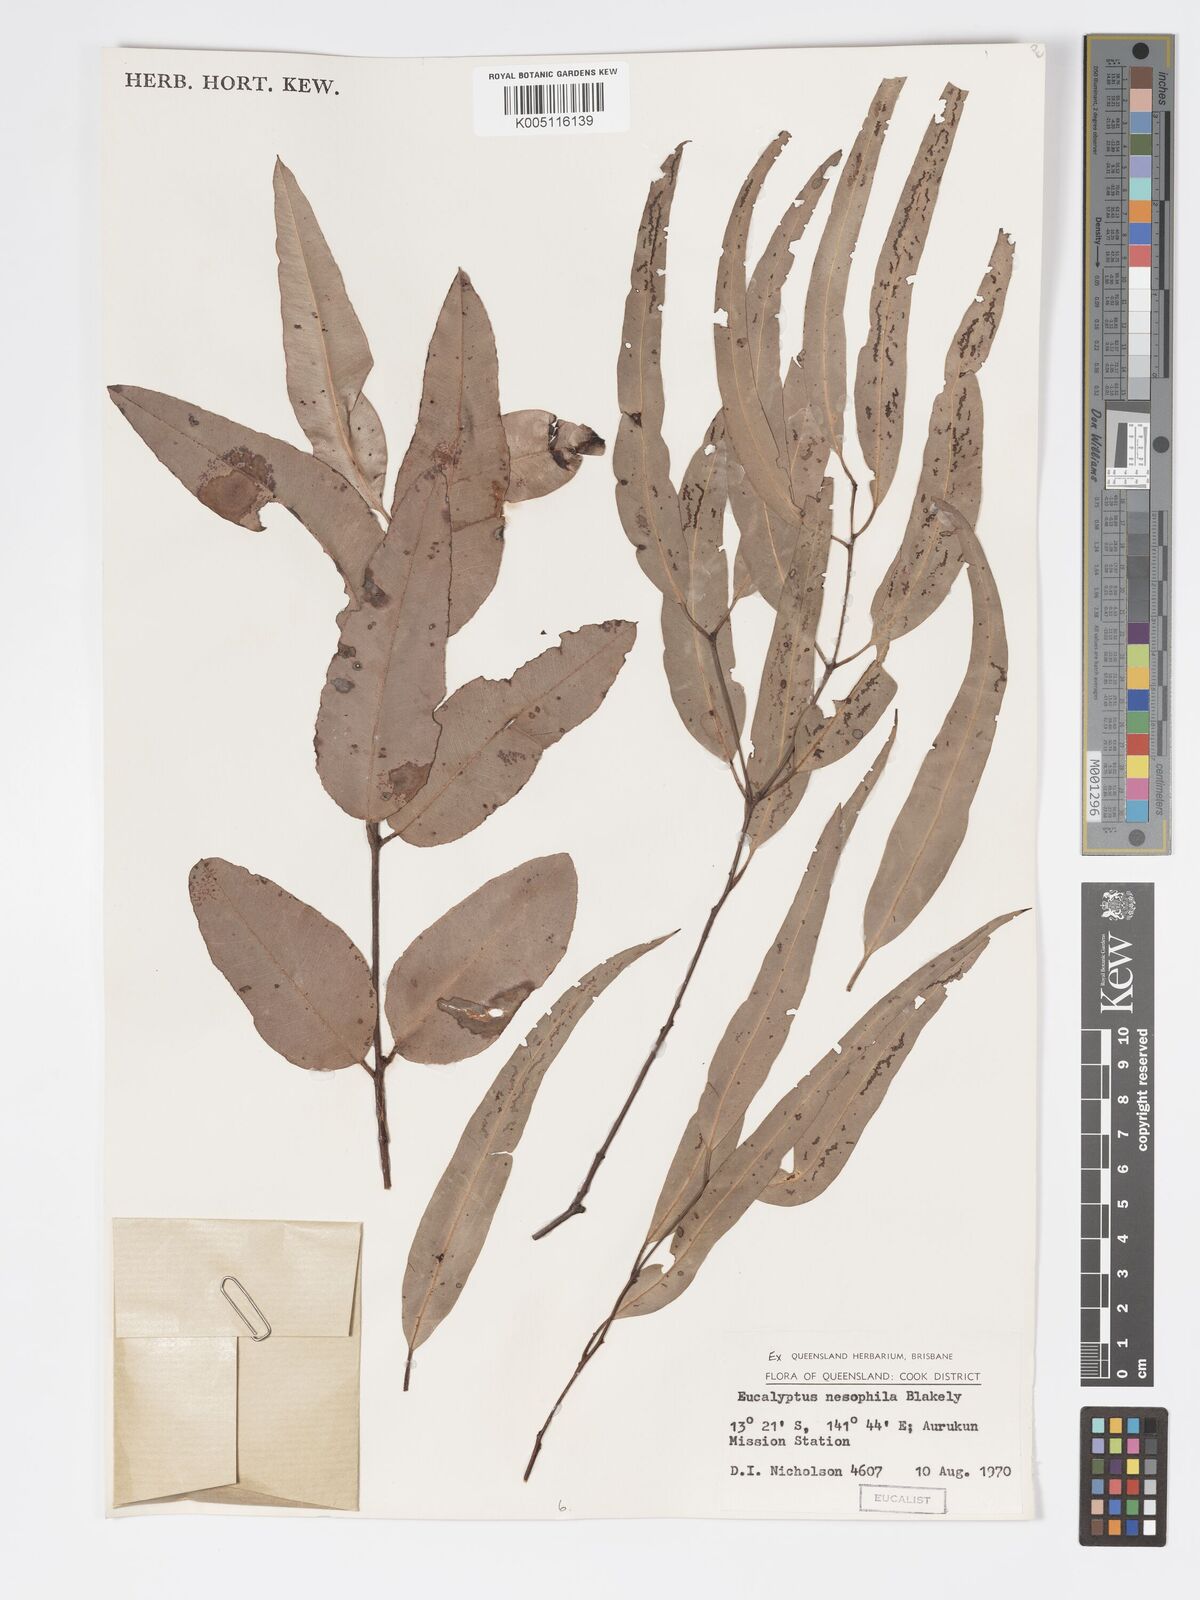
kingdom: Plantae
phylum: Tracheophyta
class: Magnoliopsida
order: Myrtales
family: Myrtaceae
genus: Corymbia
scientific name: Corymbia nesophila
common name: Melville-island-bloodwood
